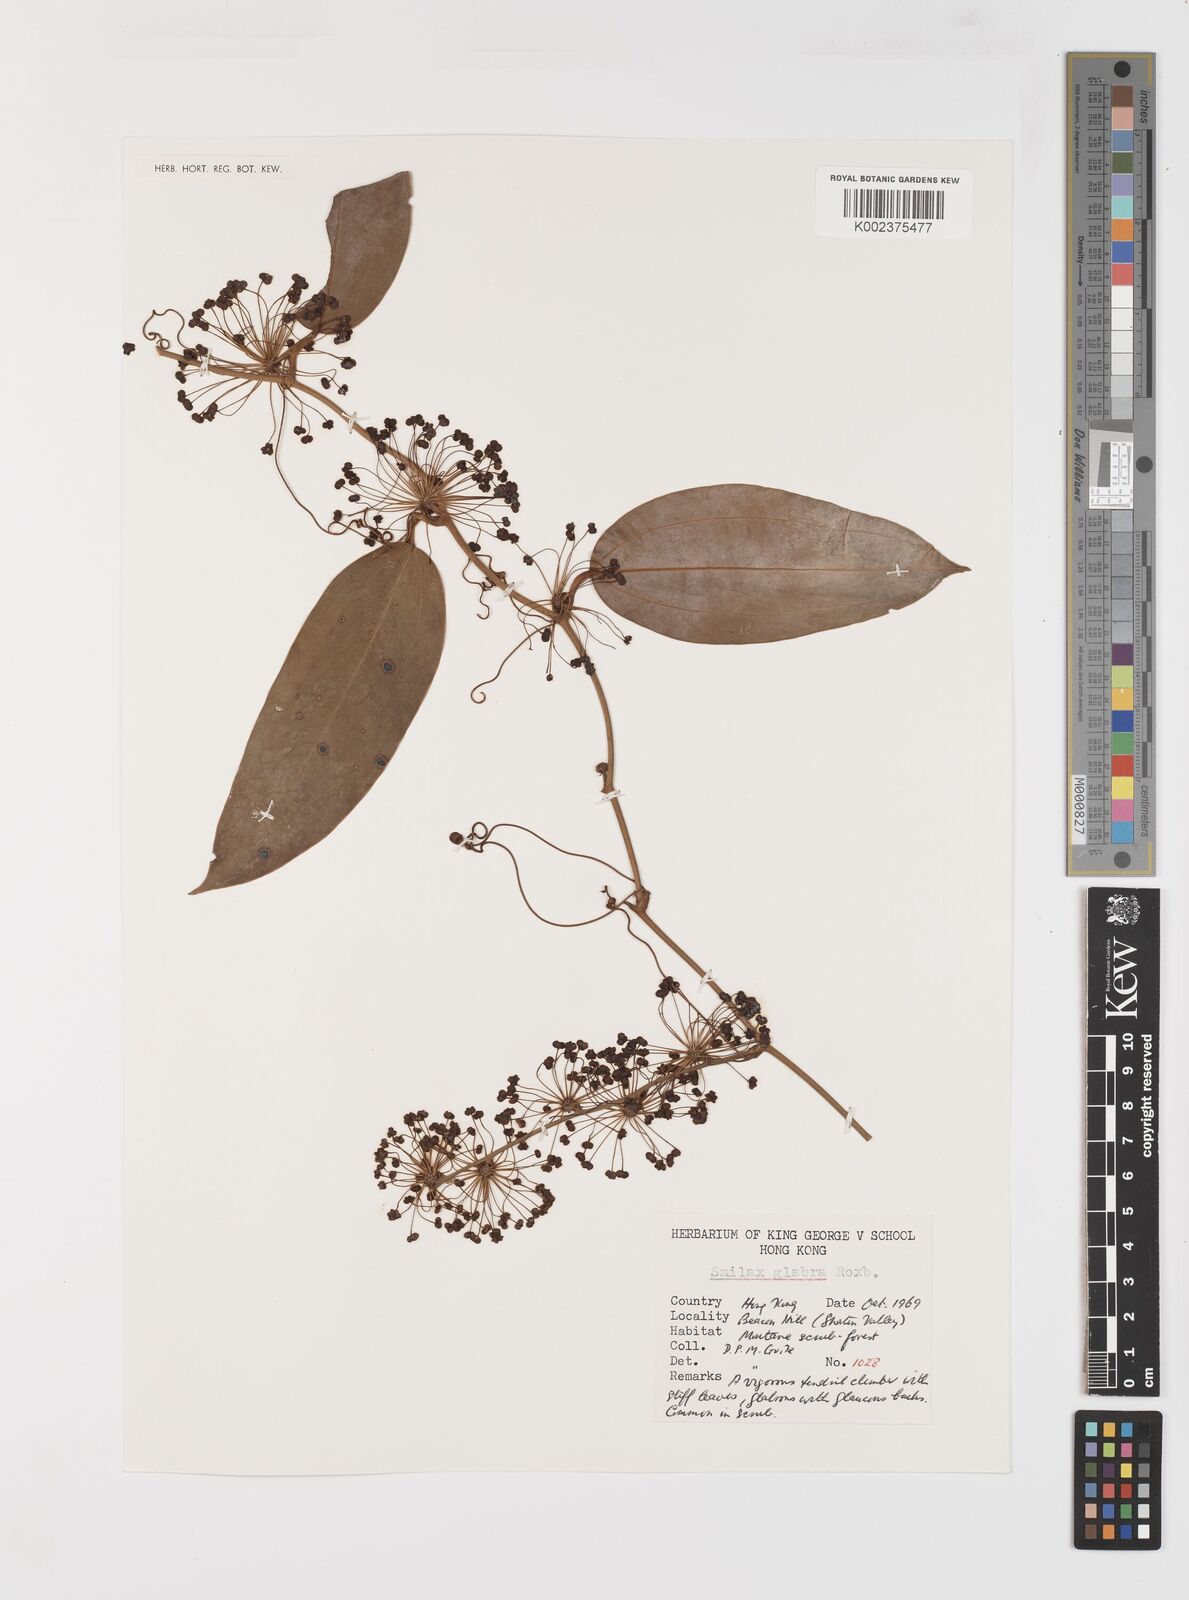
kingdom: Plantae
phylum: Tracheophyta
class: Liliopsida
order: Liliales
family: Smilacaceae
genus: Smilax
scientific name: Smilax glabra
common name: Chinese smilax
